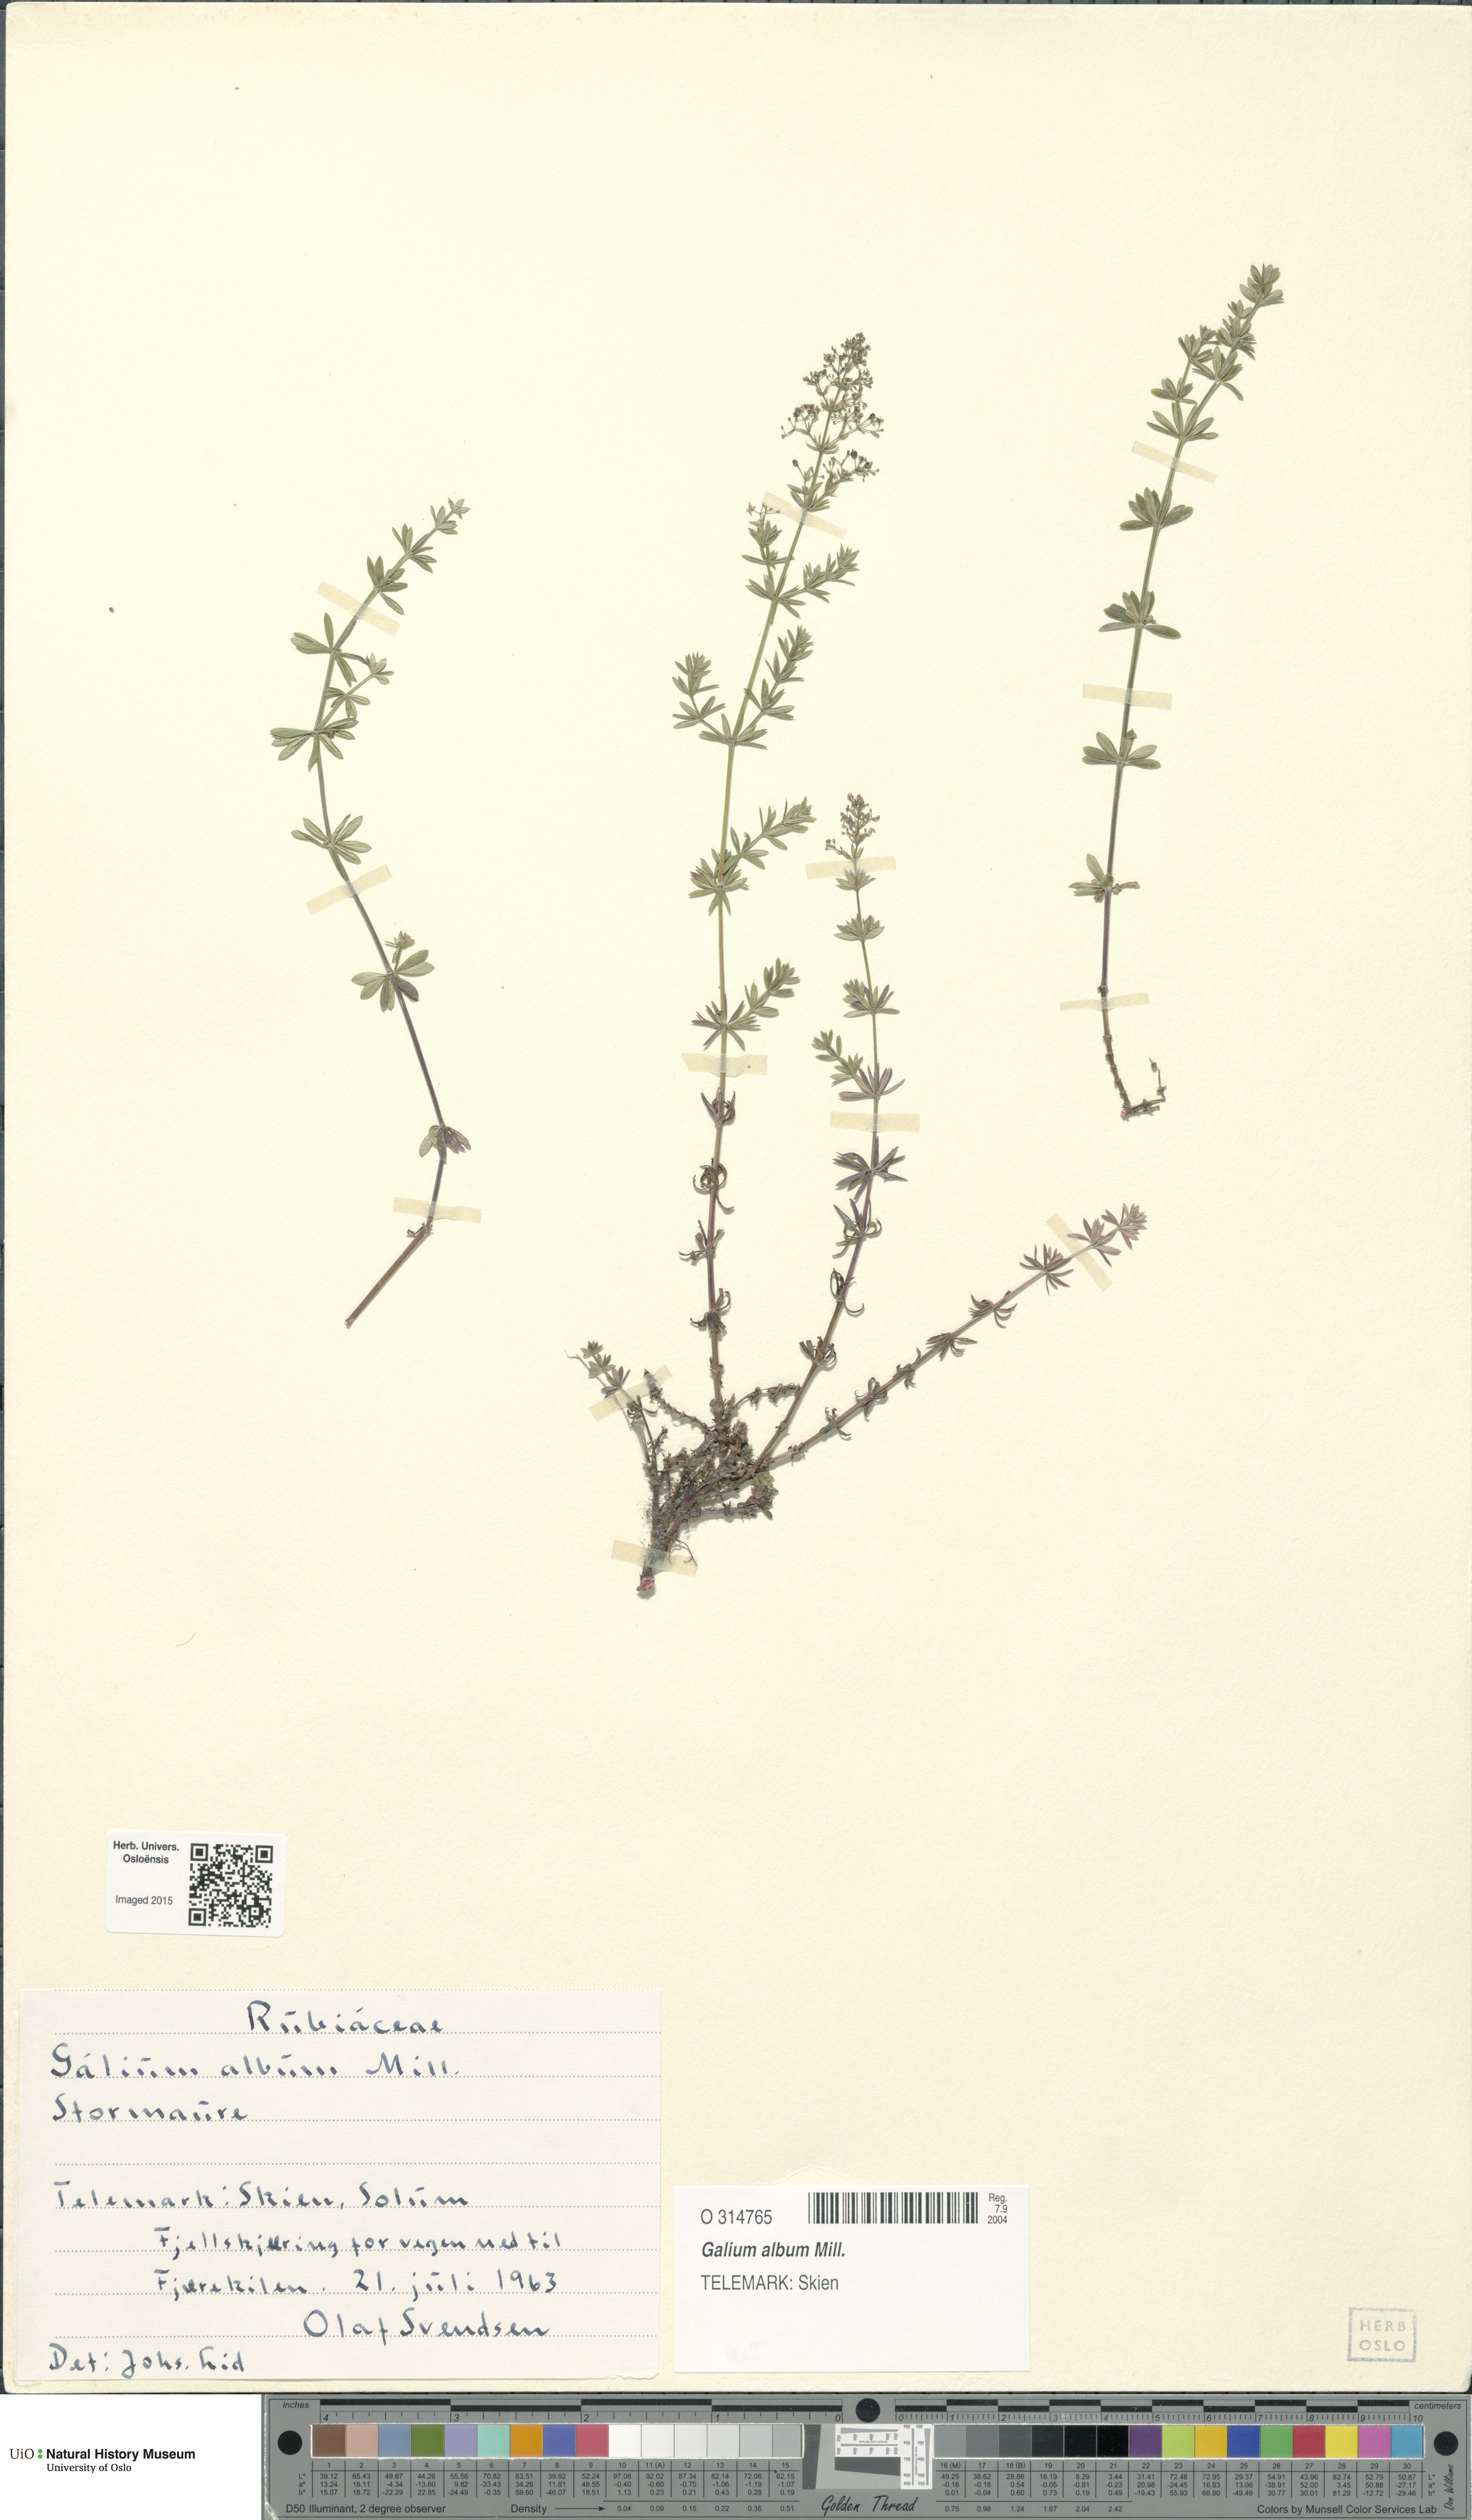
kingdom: Plantae
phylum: Tracheophyta
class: Magnoliopsida
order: Gentianales
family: Rubiaceae
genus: Galium
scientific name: Galium album
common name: White bedstraw
